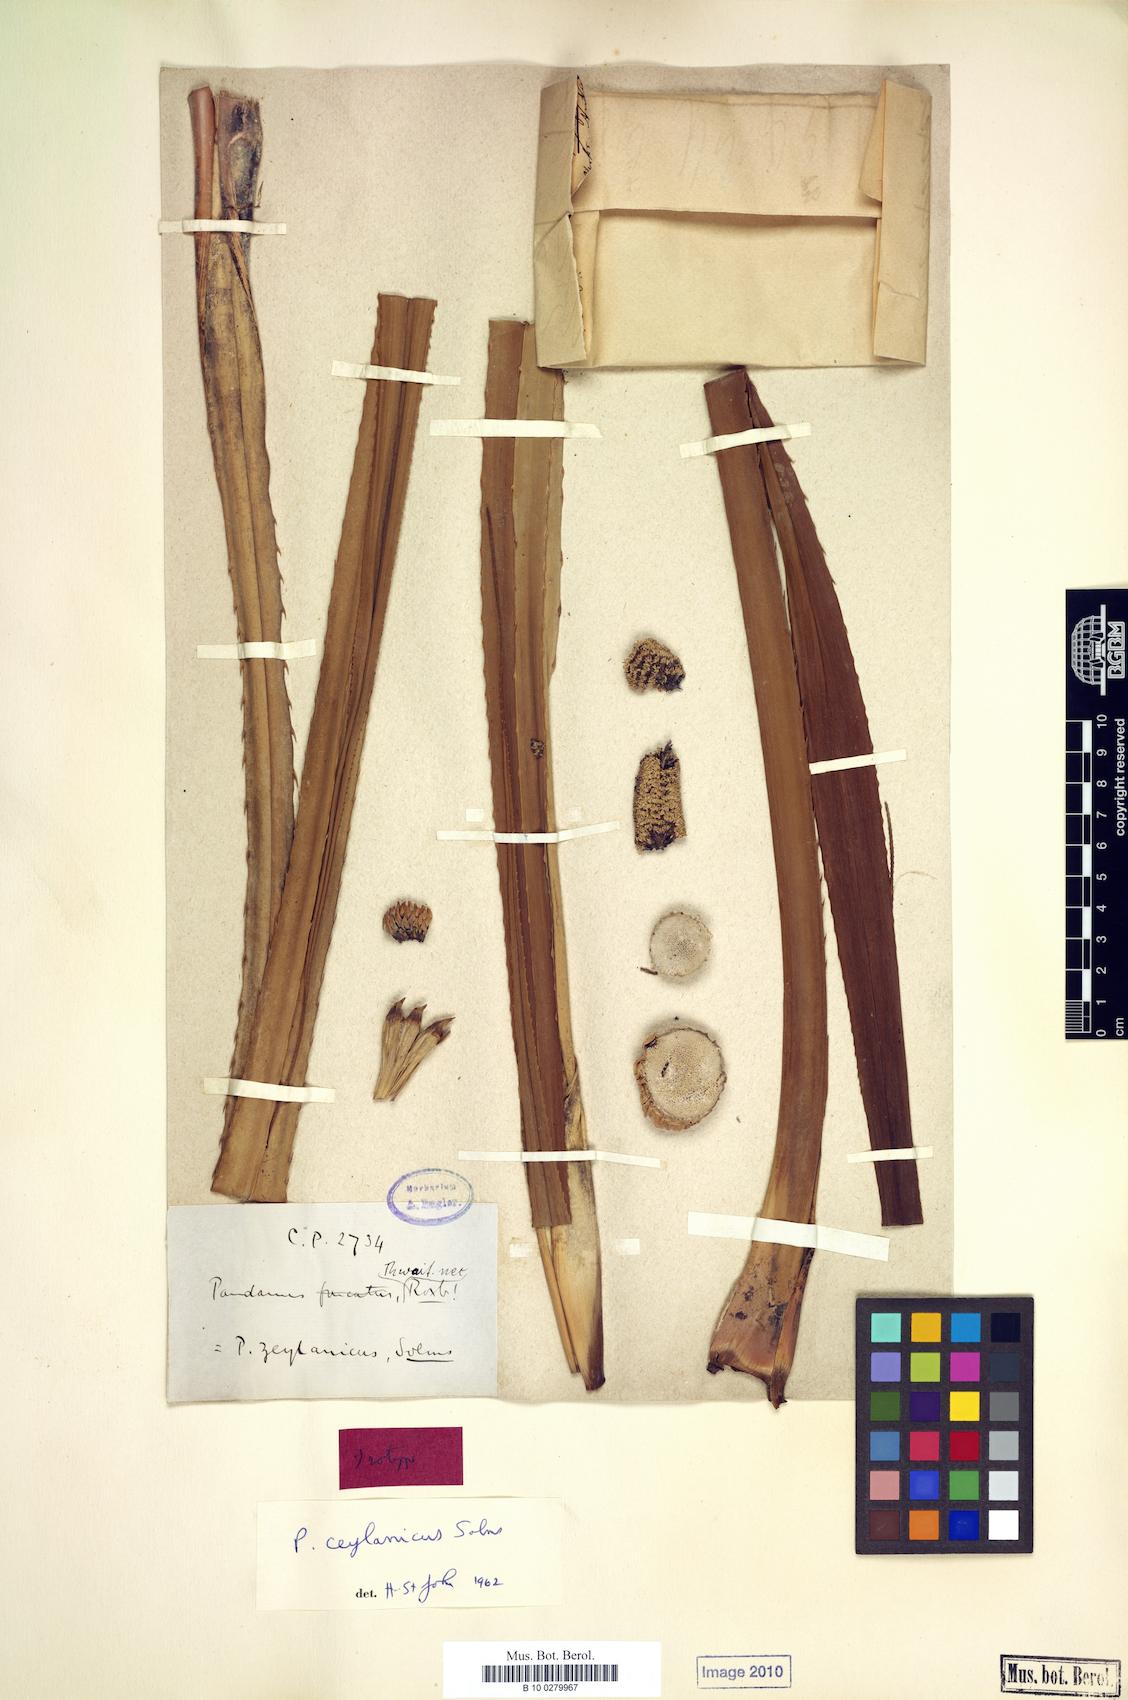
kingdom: Plantae
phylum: Tracheophyta
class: Liliopsida
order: Pandanales
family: Pandanaceae
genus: Pandanus
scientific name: Pandanus ceylanicus
